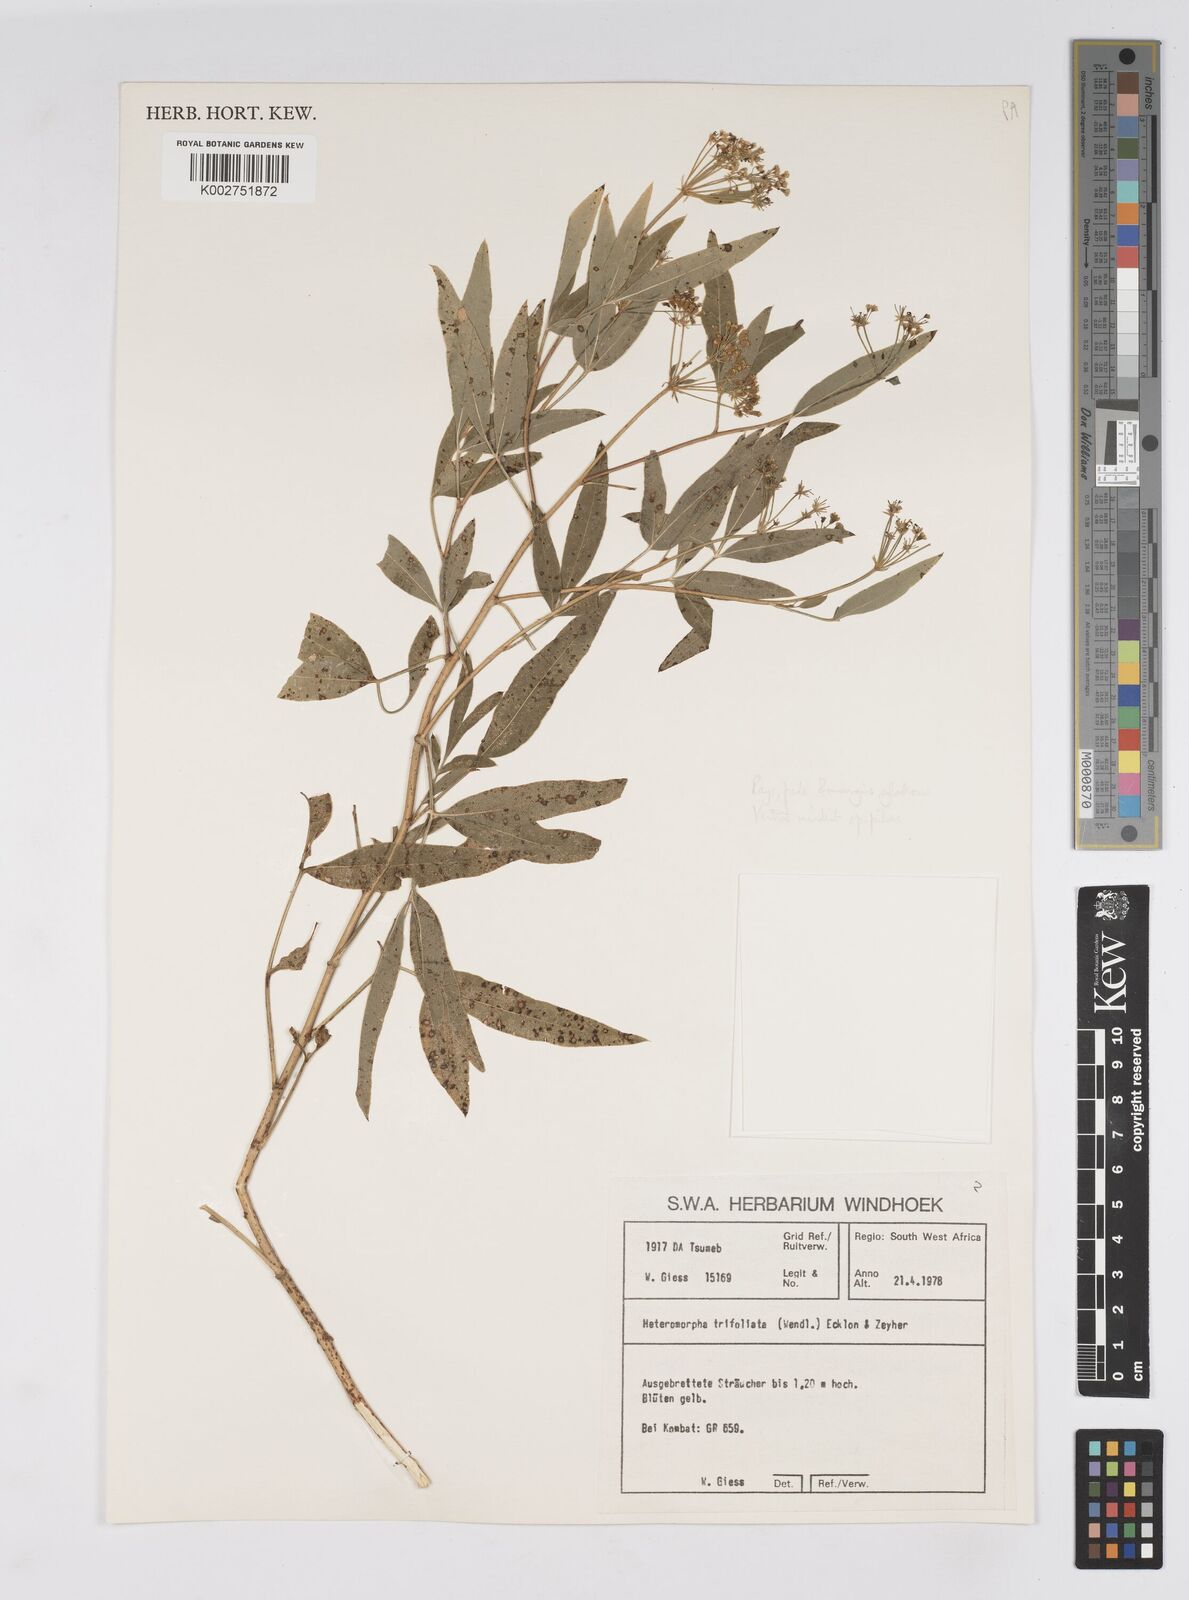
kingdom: Plantae
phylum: Tracheophyta
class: Magnoliopsida
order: Apiales
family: Apiaceae
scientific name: Apiaceae
